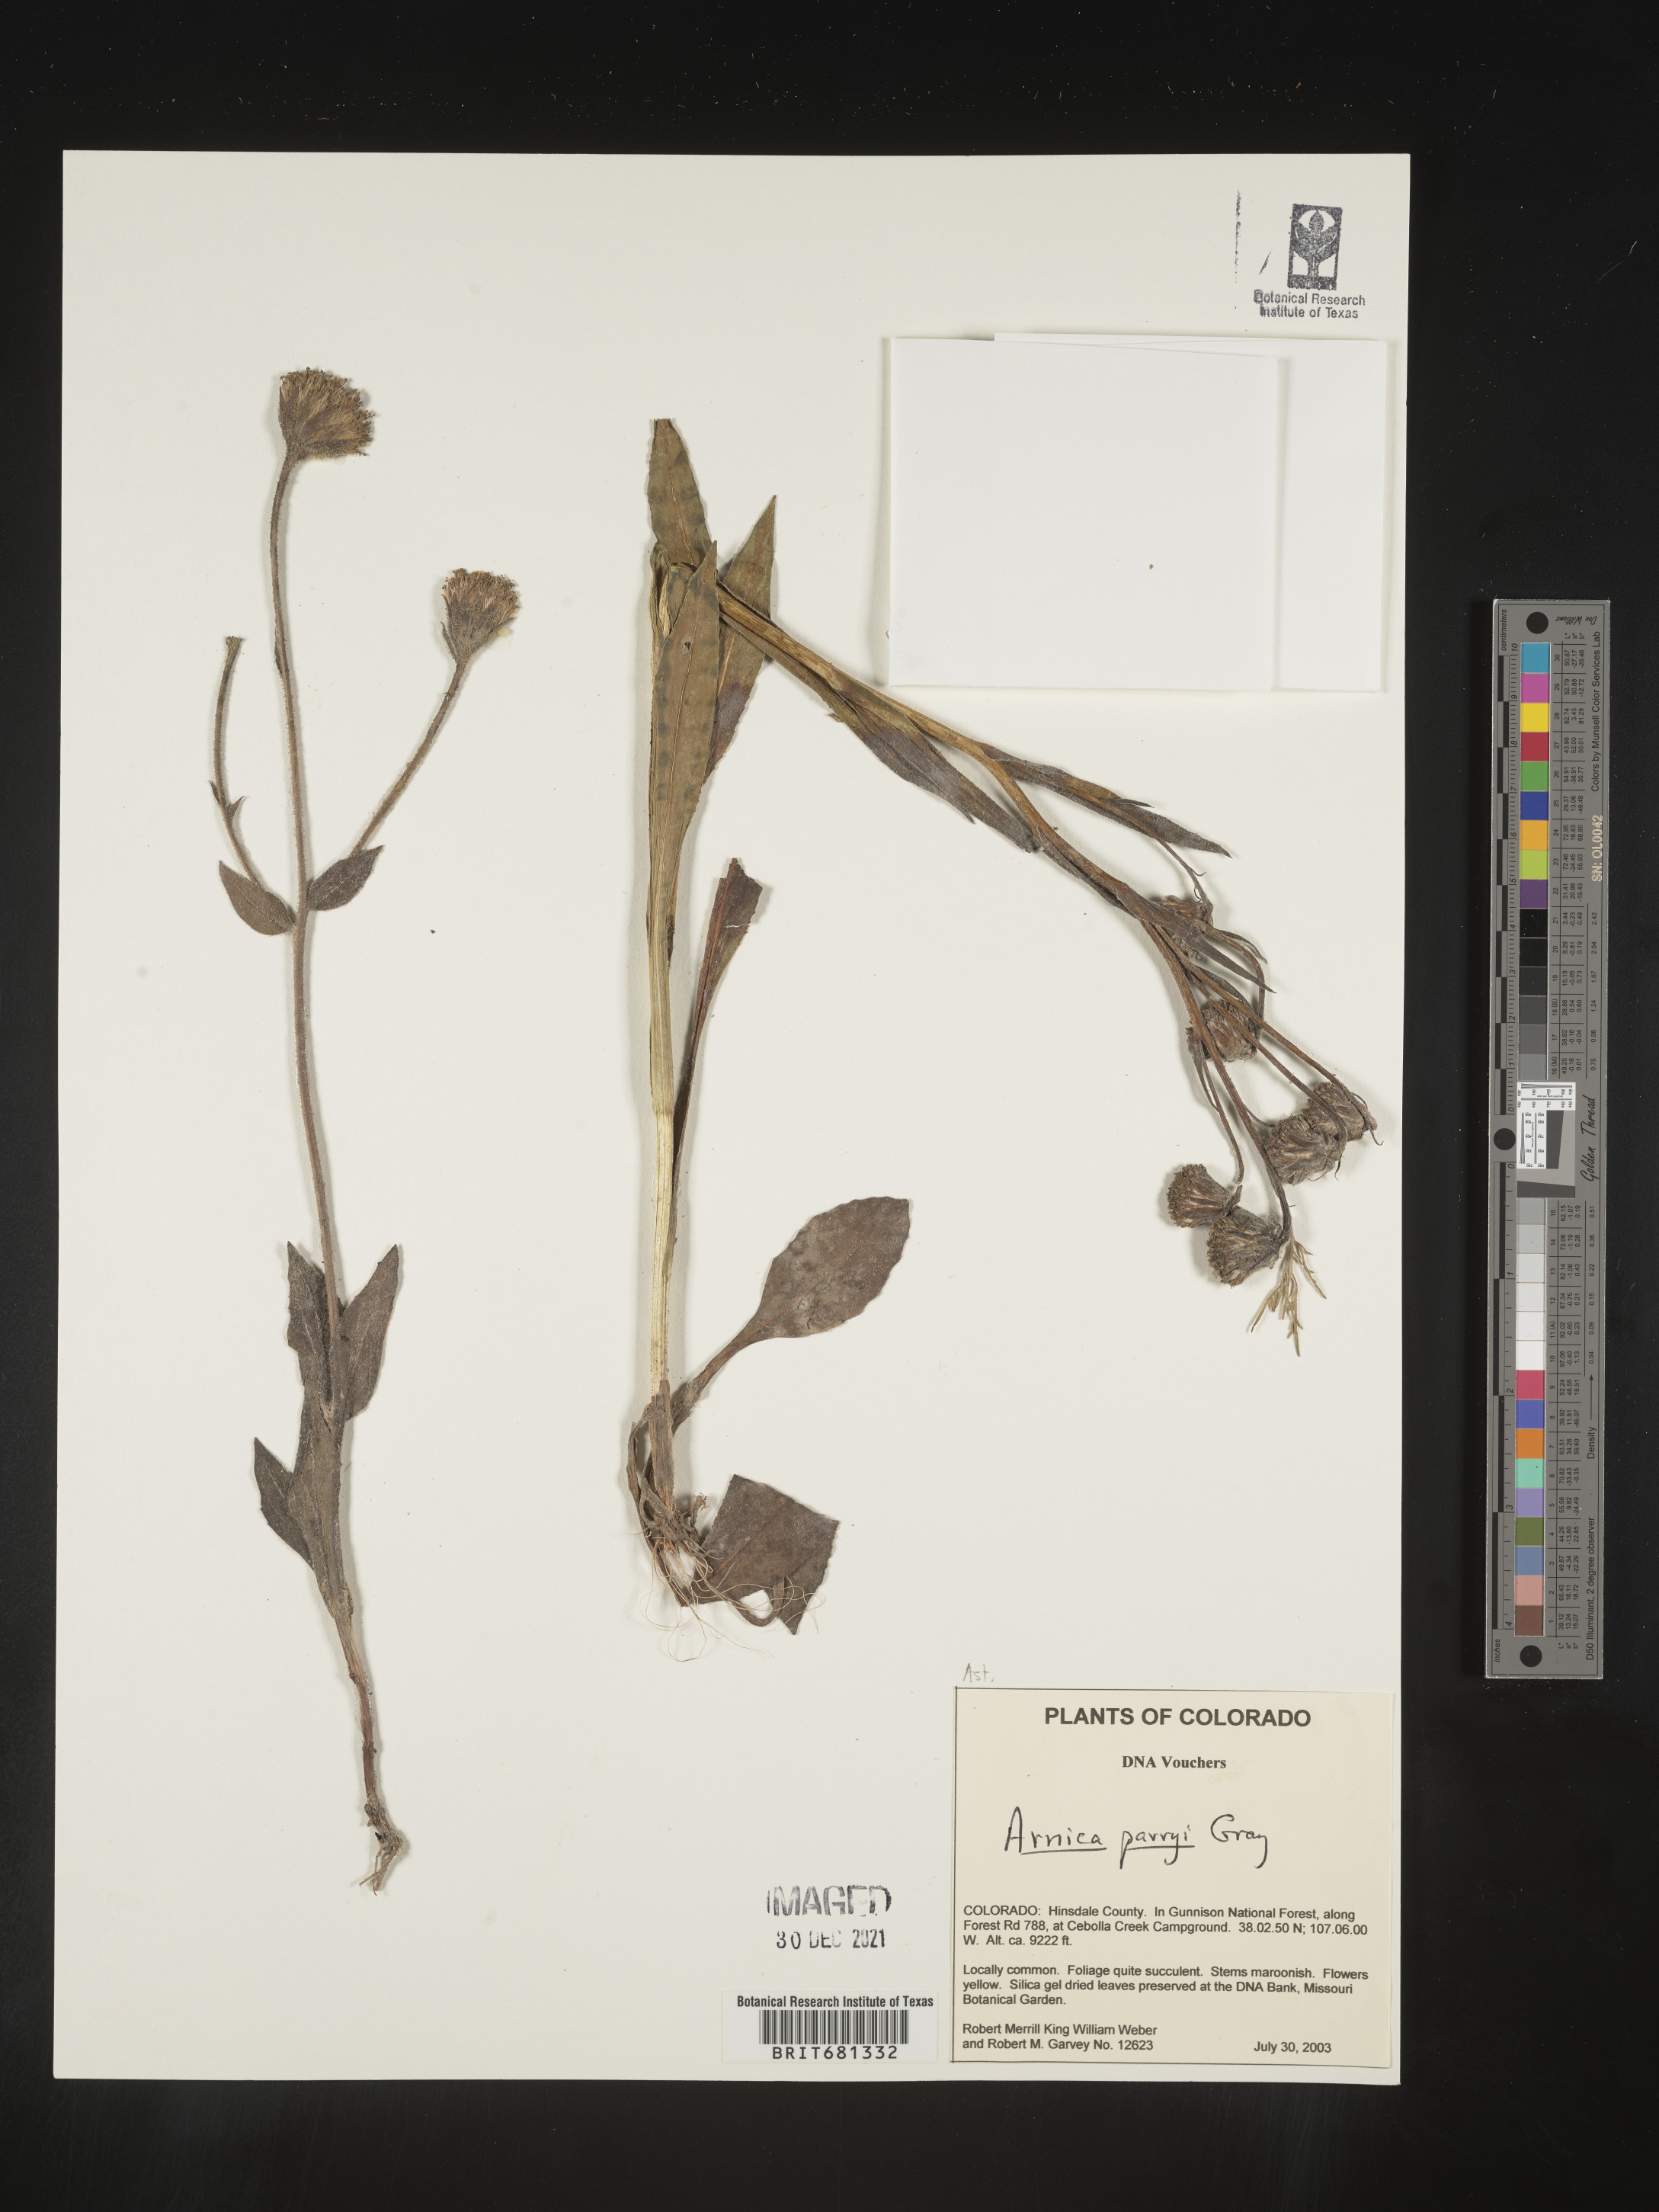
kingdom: Plantae
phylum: Tracheophyta
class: Magnoliopsida
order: Asterales
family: Asteraceae
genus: Arnica
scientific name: Arnica parryi
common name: Parry's arnica
